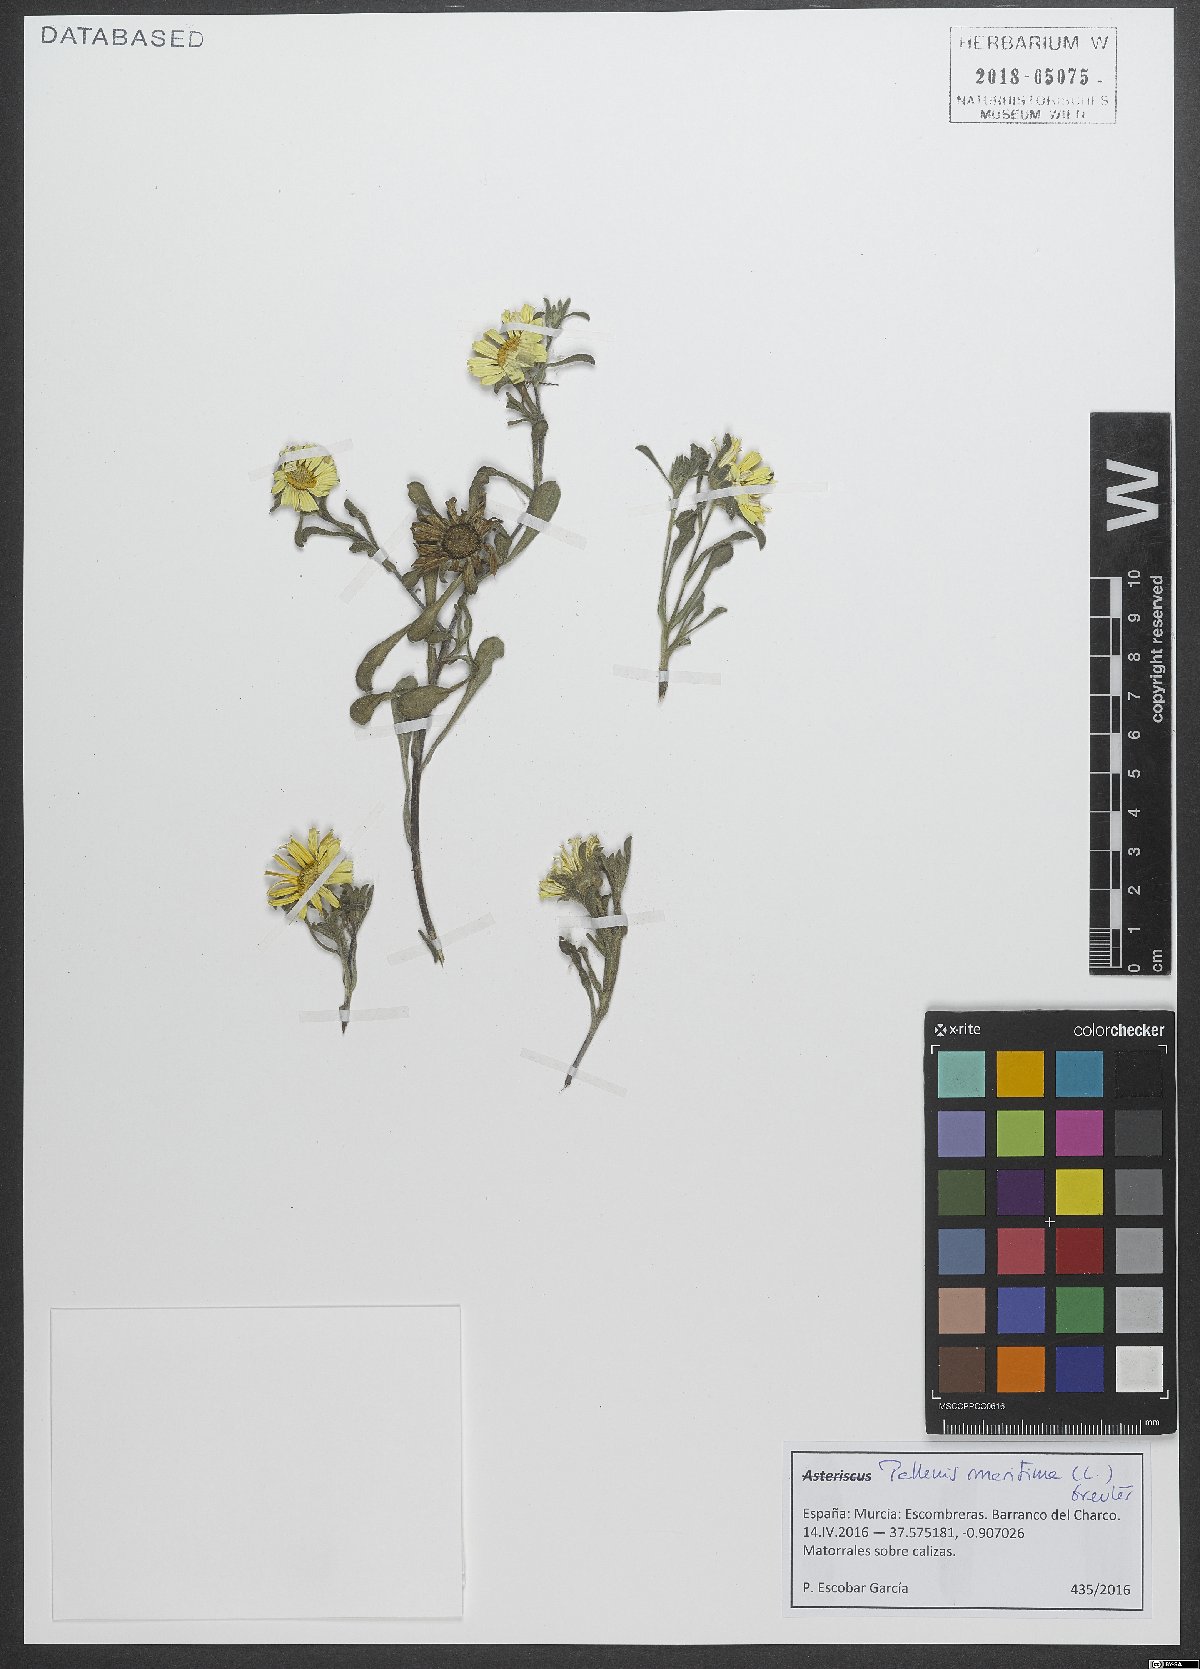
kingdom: Plantae
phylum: Tracheophyta
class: Magnoliopsida
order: Asterales
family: Asteraceae
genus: Pallenis
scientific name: Pallenis maritima
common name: Golden coin daisy
